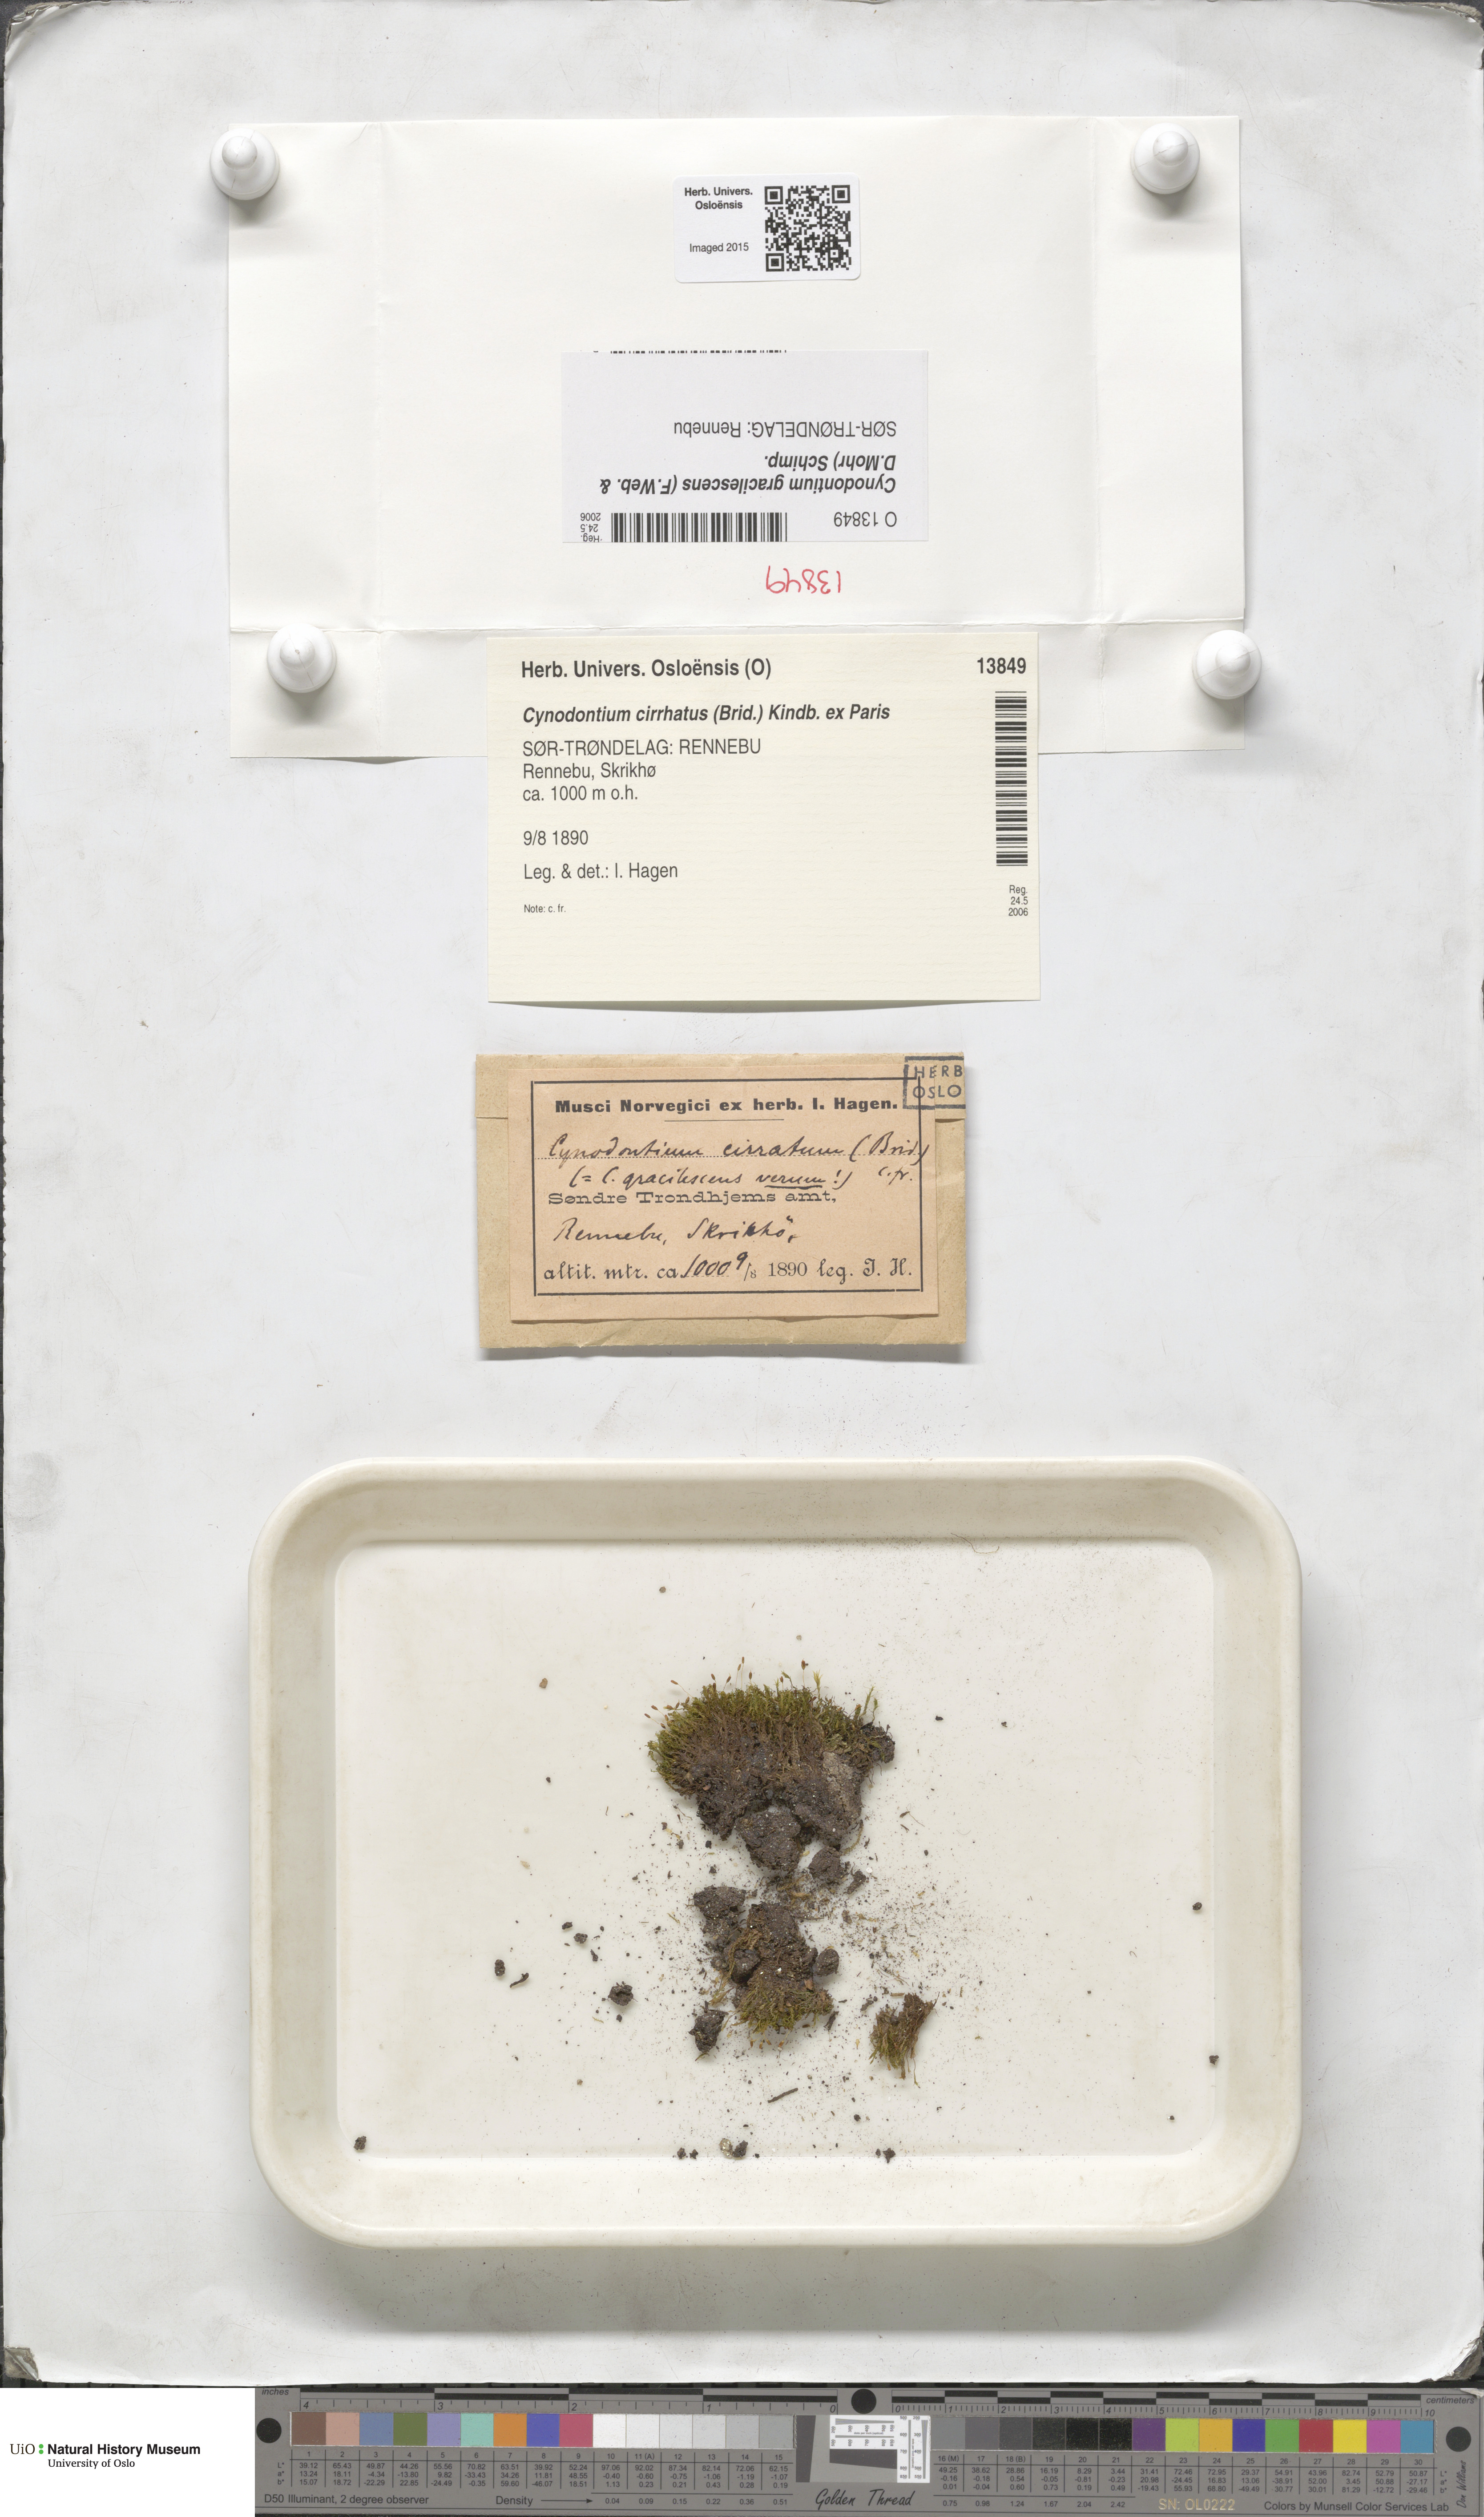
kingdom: Plantae
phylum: Bryophyta
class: Bryopsida
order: Dicranales
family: Rhabdoweisiaceae
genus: Cynodontium
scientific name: Cynodontium gracilescens
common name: Slender dogtooth moss
